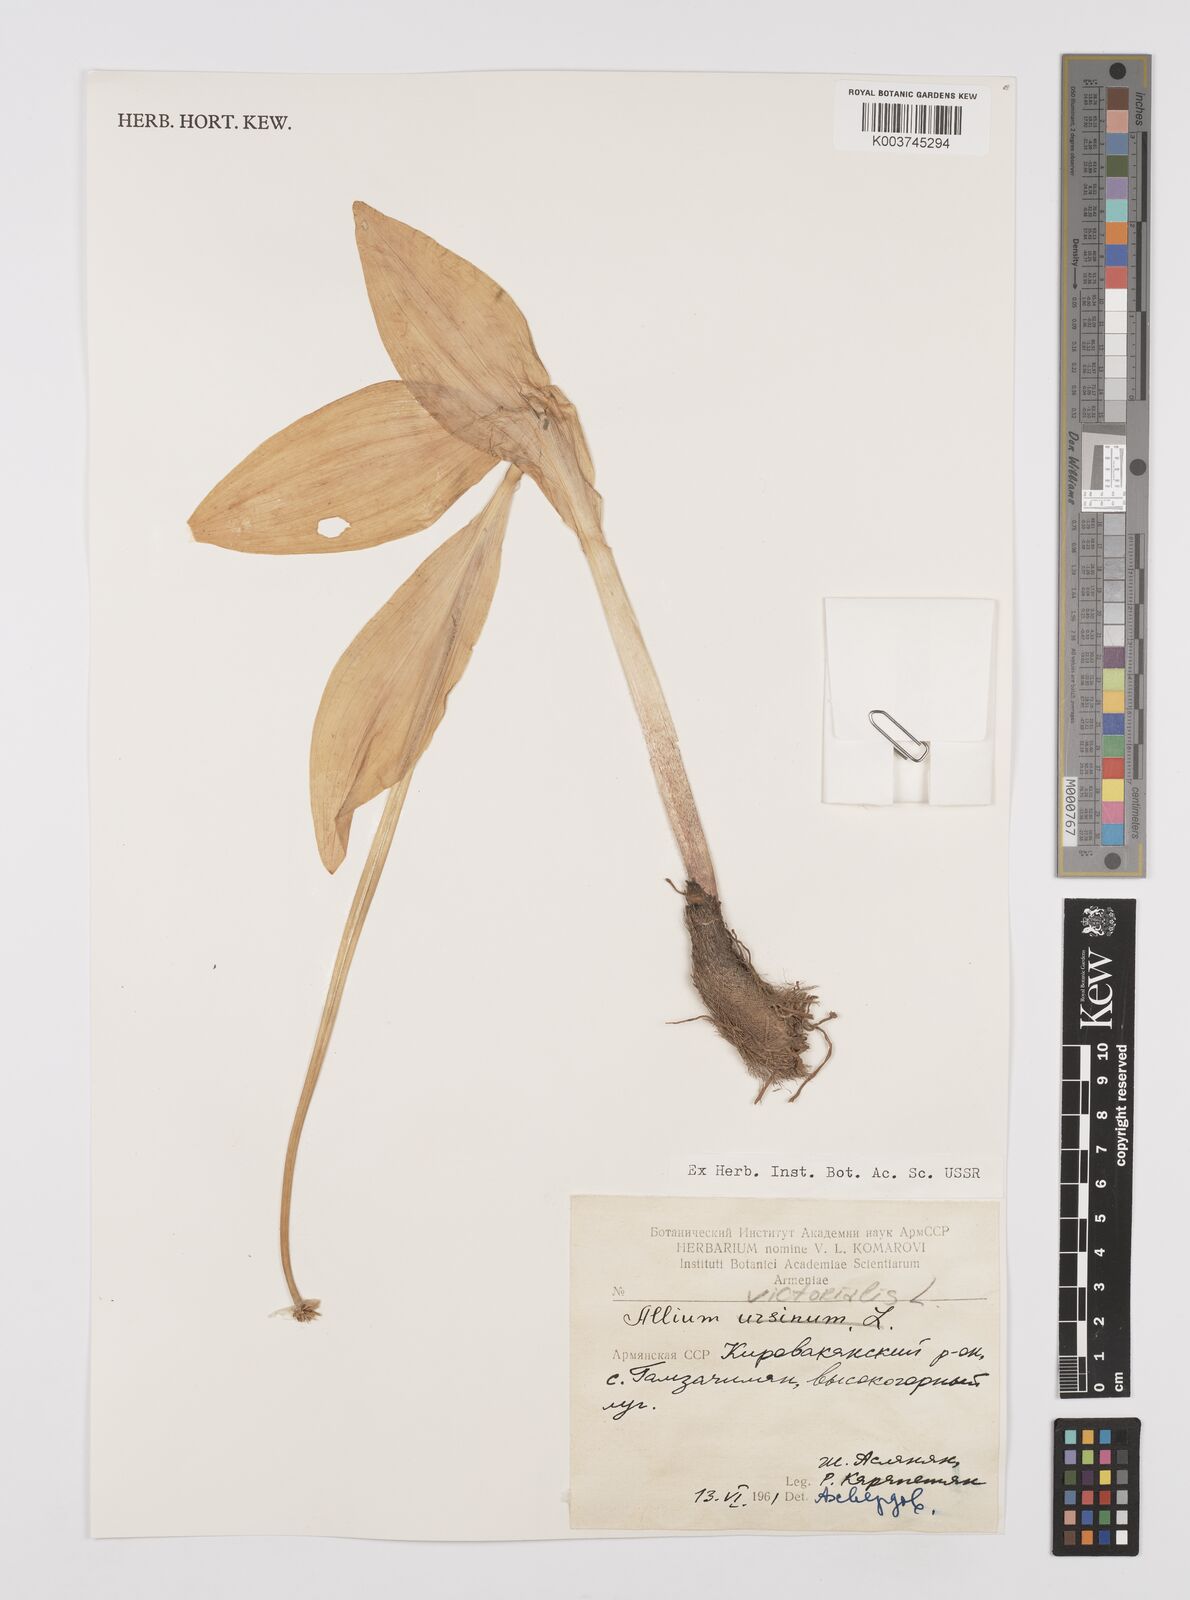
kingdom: Plantae
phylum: Tracheophyta
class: Liliopsida
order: Asparagales
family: Amaryllidaceae
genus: Allium
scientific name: Allium victorialis
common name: Alpine leek
